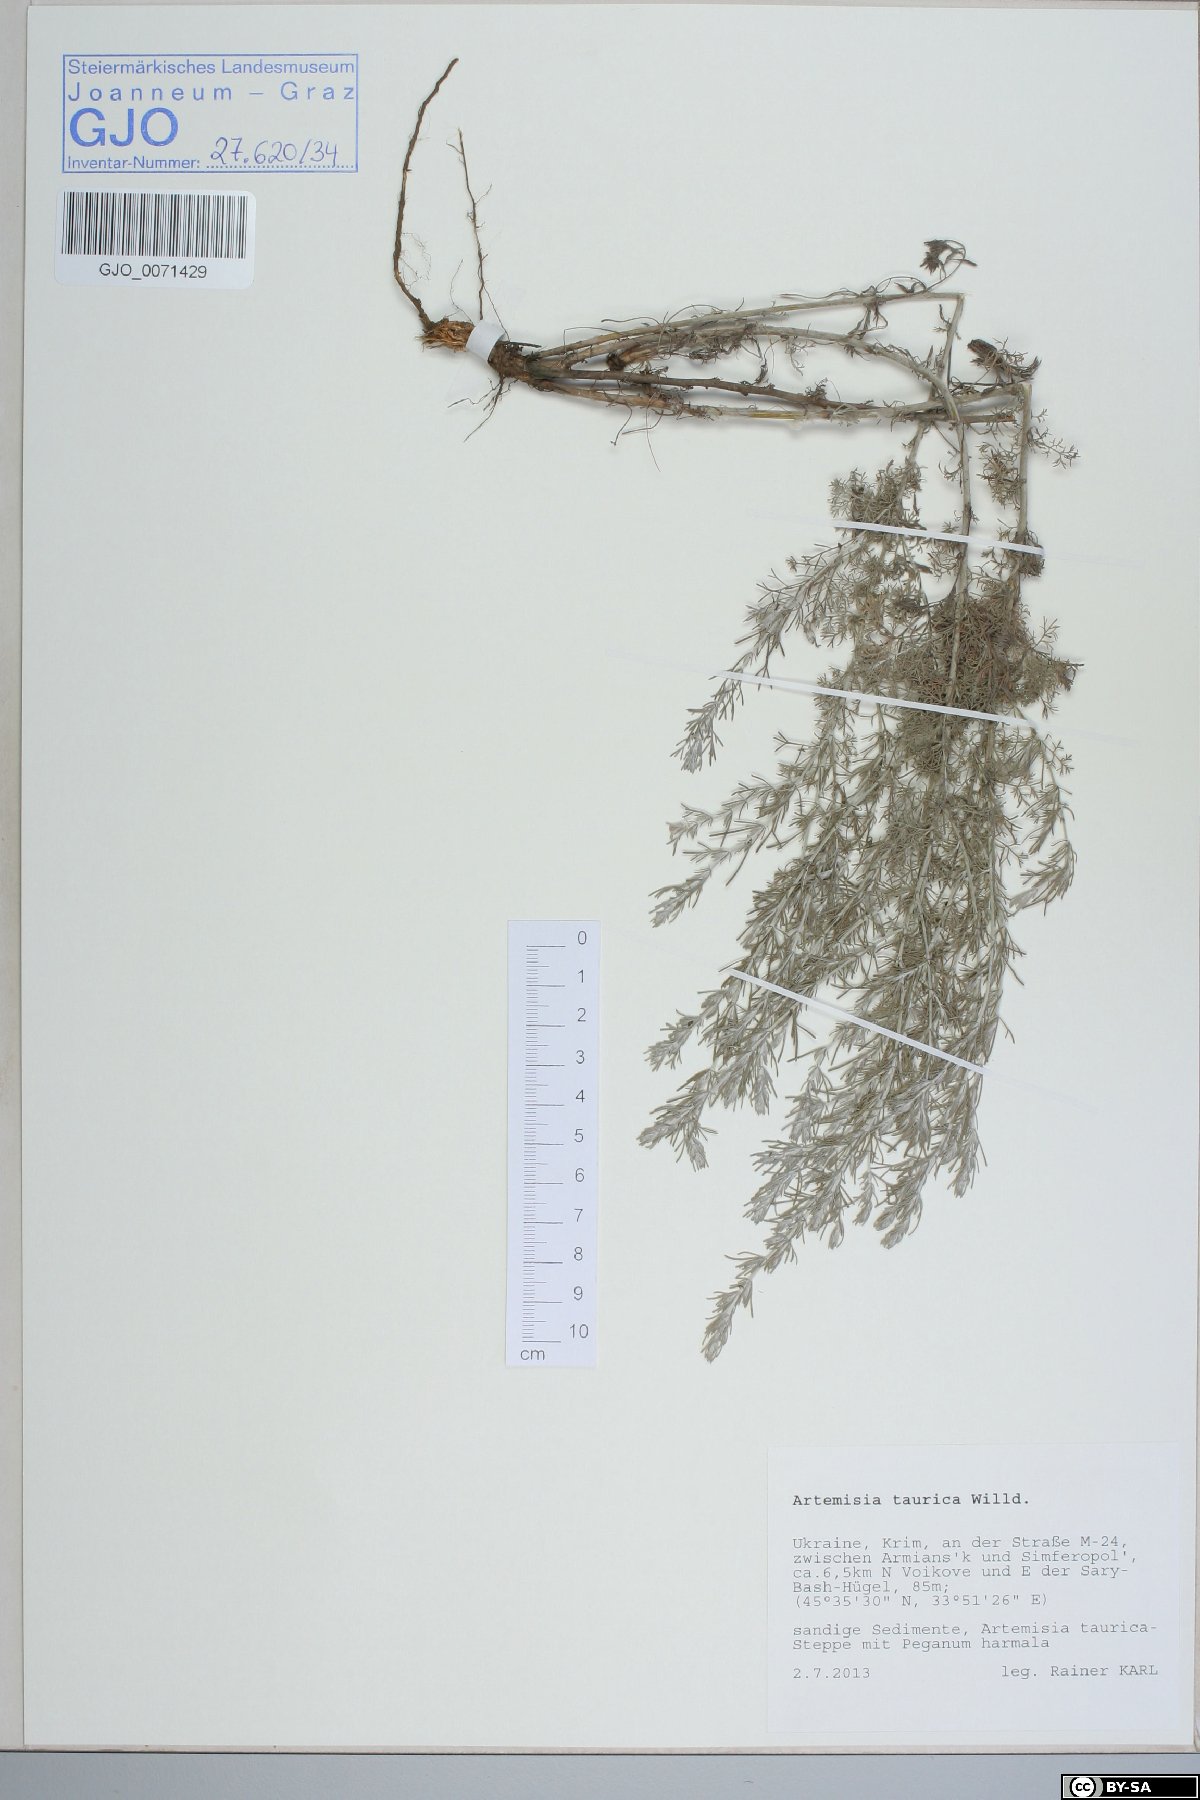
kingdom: Plantae
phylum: Tracheophyta
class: Magnoliopsida
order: Asterales
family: Asteraceae
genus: Artemisia
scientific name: Artemisia taurica
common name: Tauric wormwood
